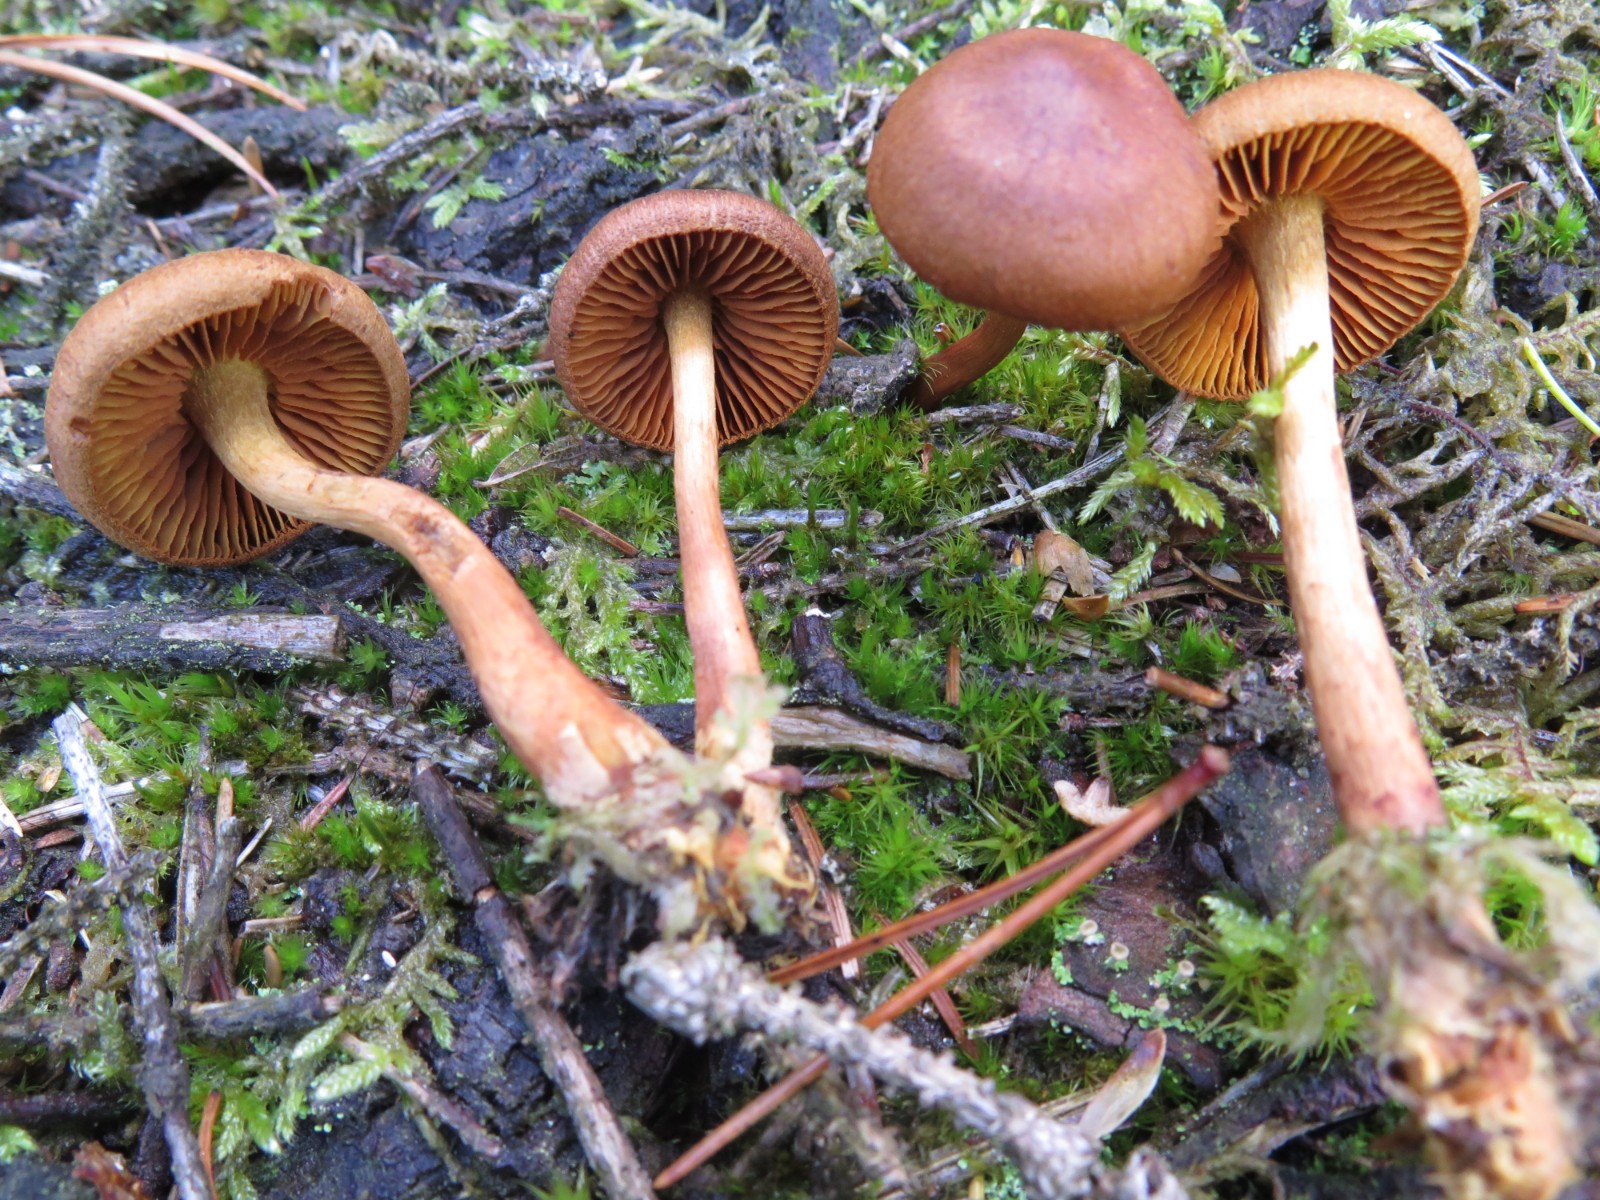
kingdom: Fungi
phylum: Basidiomycota
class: Agaricomycetes
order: Agaricales
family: Cortinariaceae
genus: Cortinarius
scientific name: Cortinarius
